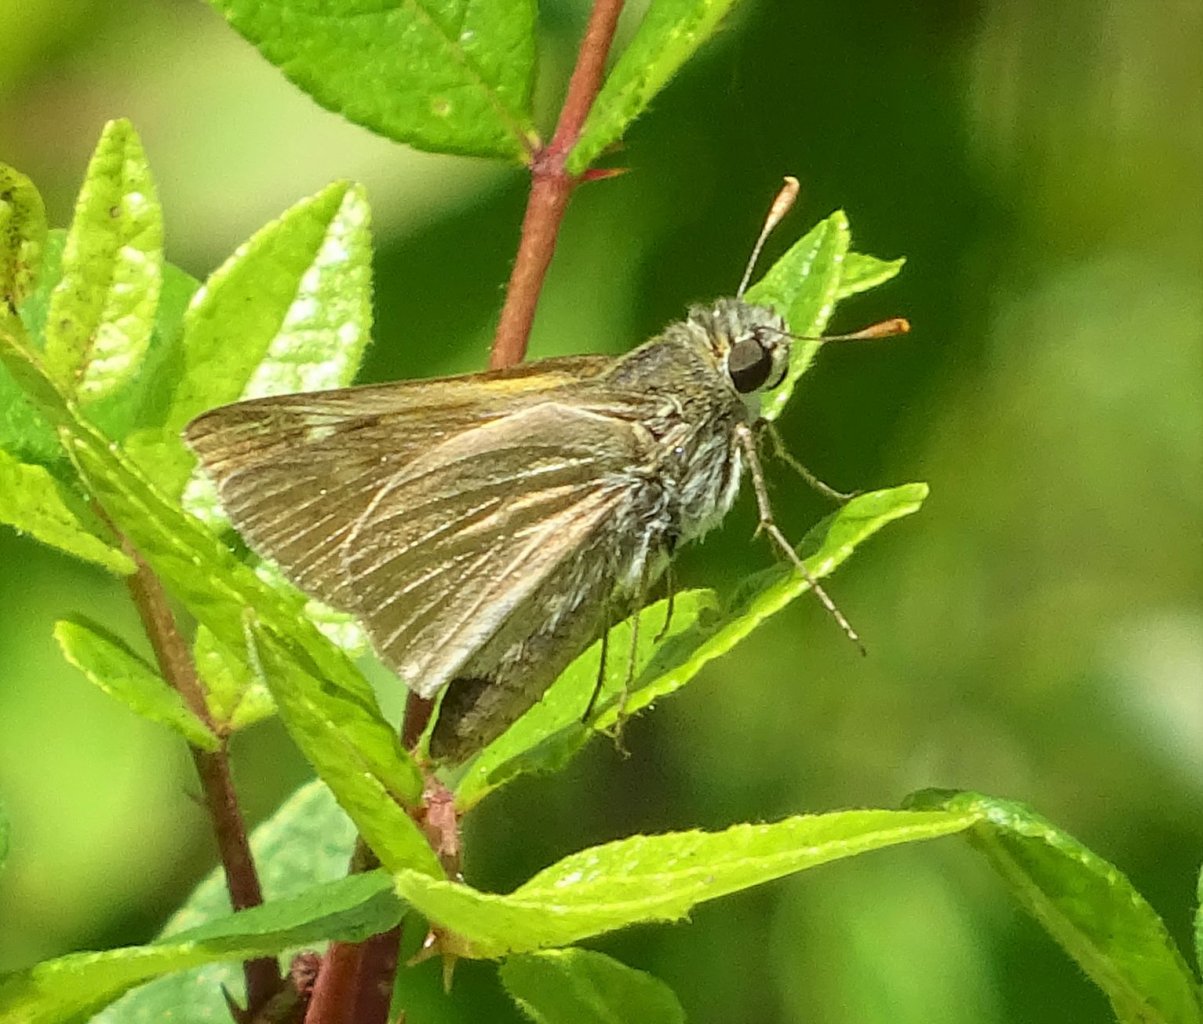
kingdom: Animalia
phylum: Arthropoda
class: Insecta
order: Lepidoptera
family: Hesperiidae
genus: Polites
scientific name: Polites themistocles
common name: Tawny-edged Skipper
